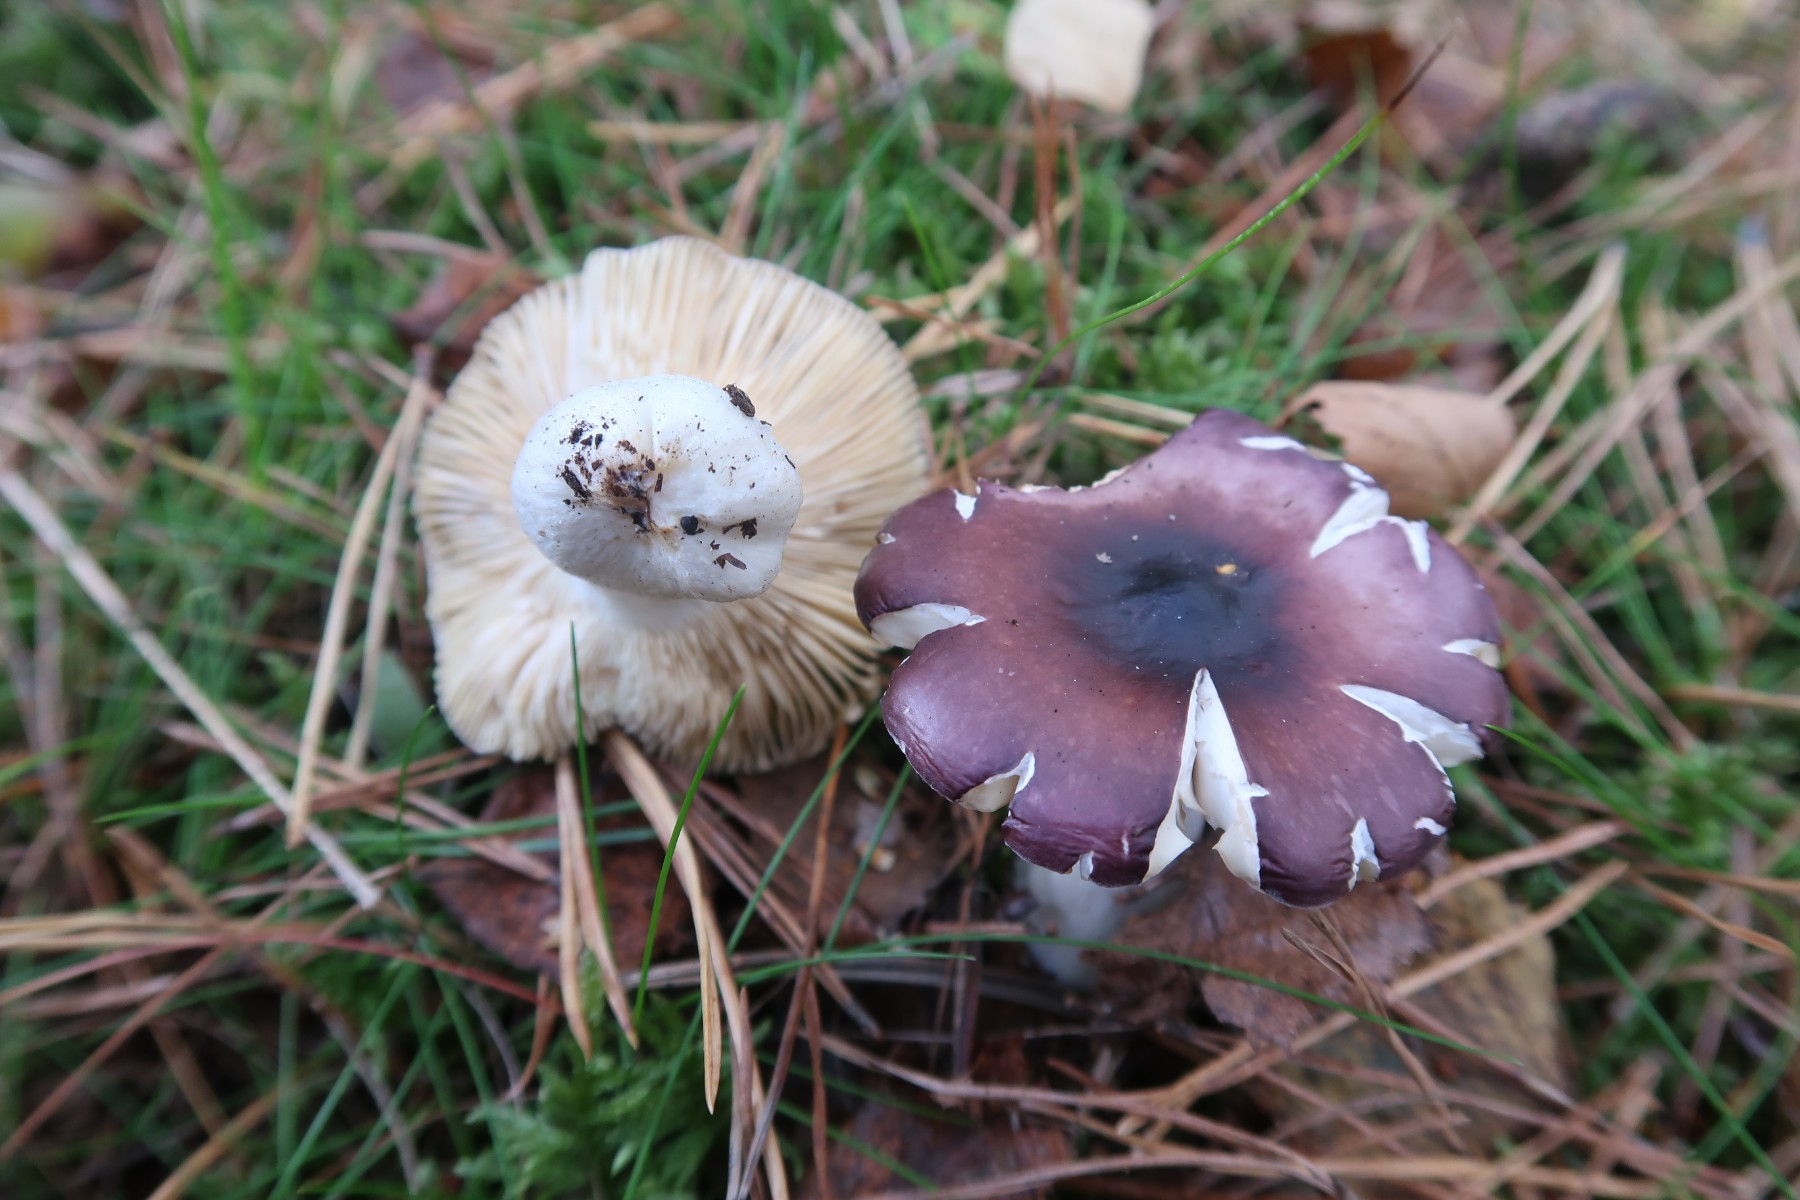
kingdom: Fungi
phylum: Basidiomycota
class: Agaricomycetes
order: Russulales
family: Russulaceae
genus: Russula
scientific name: Russula caerulea
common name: puklet skørhat
